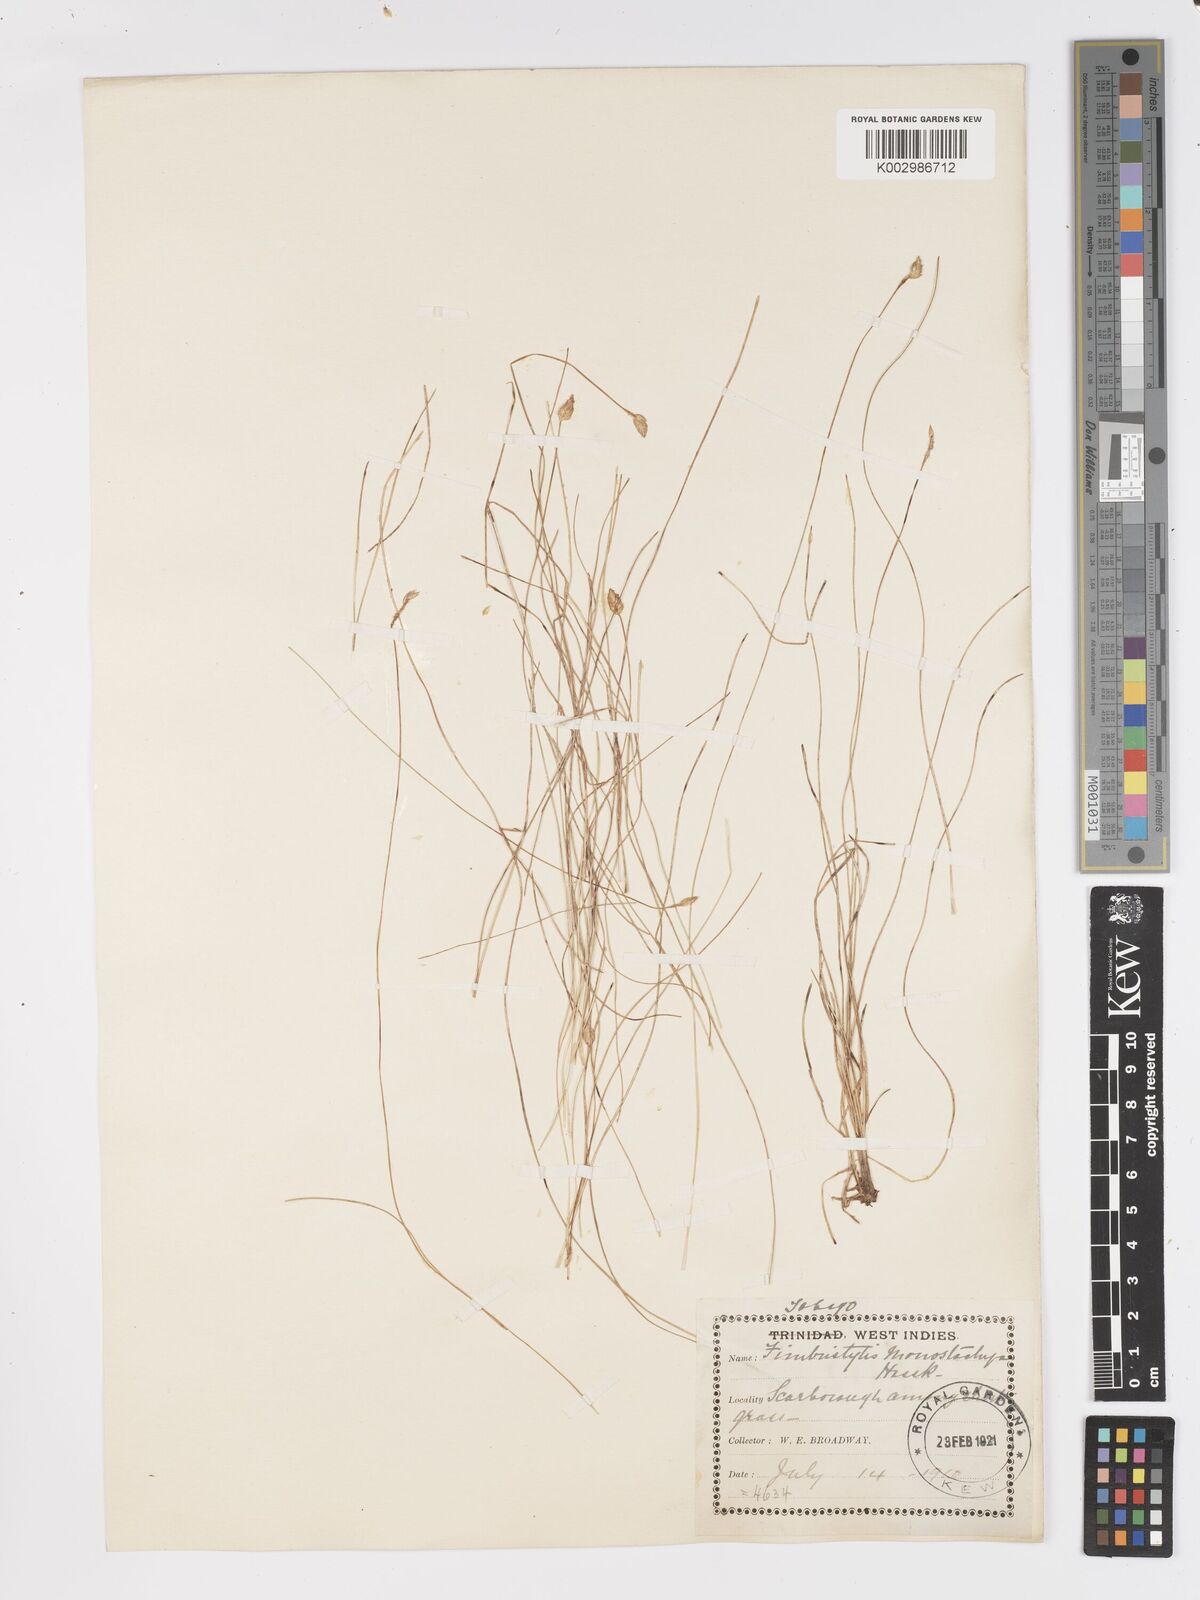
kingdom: Plantae
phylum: Tracheophyta
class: Liliopsida
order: Poales
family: Cyperaceae
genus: Fimbristylis
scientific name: Fimbristylis
